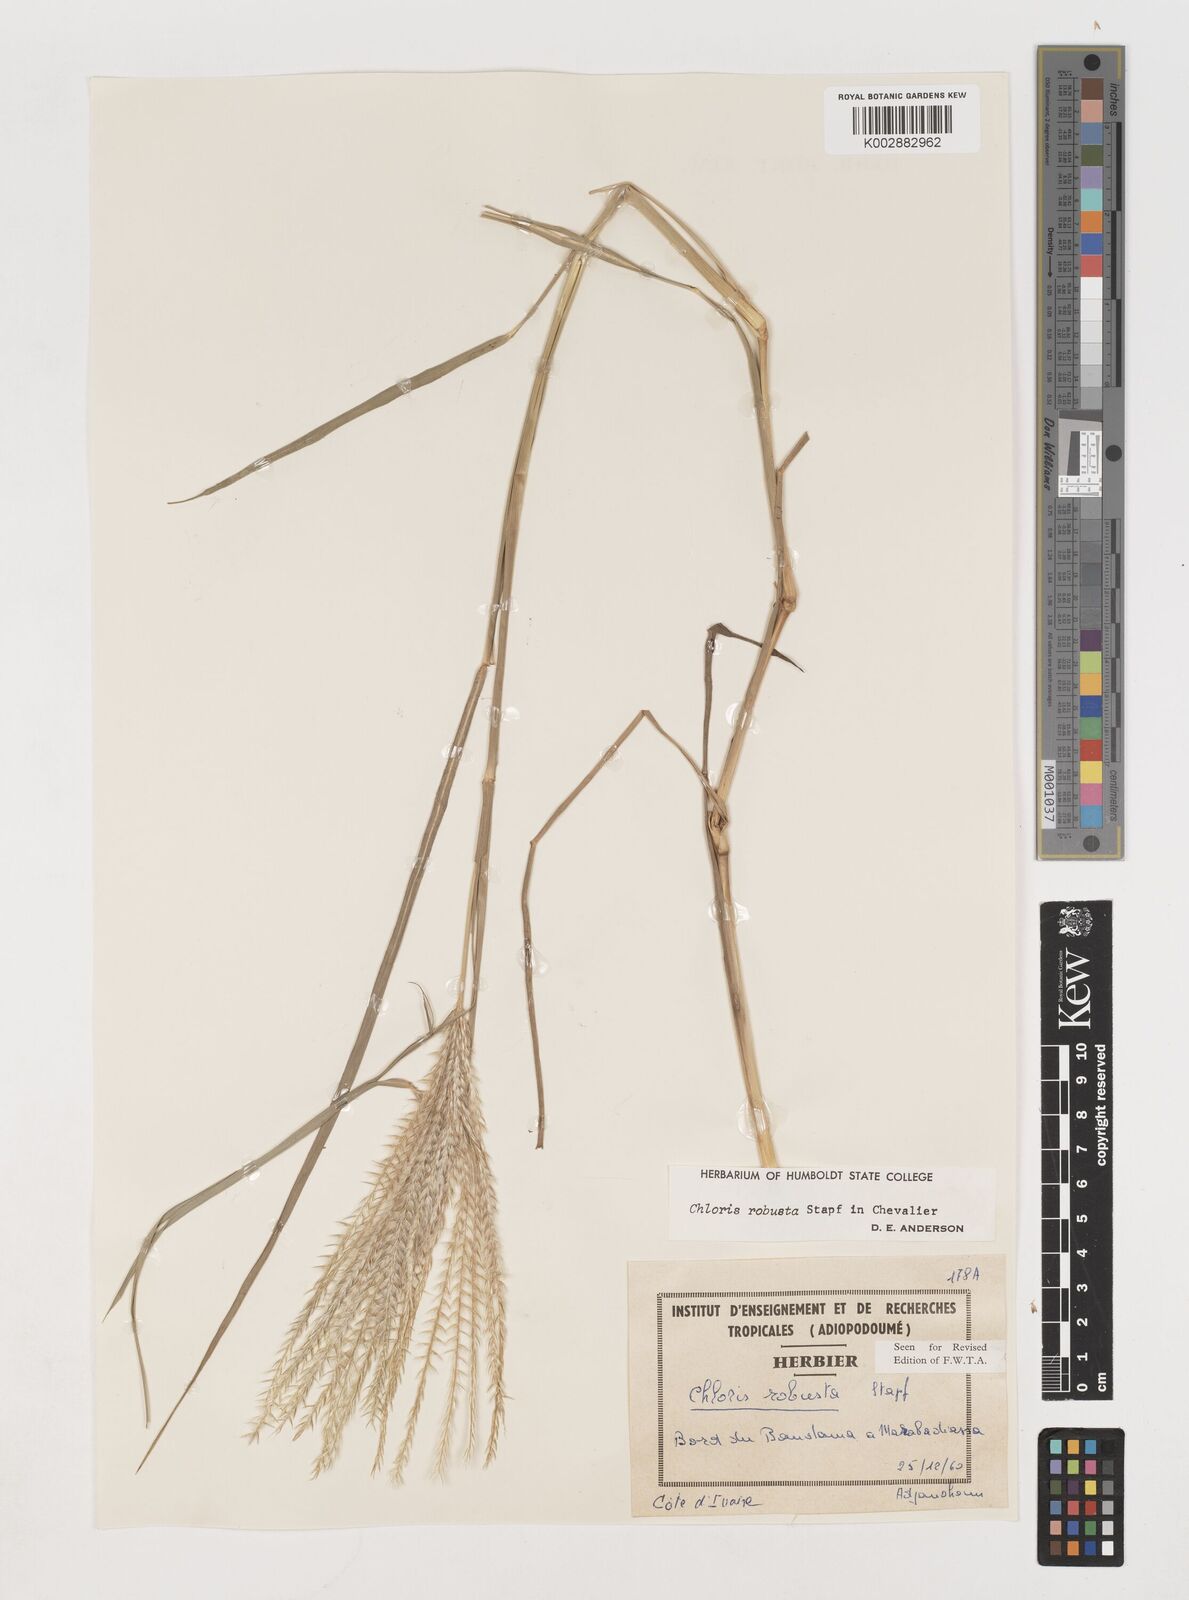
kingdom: Plantae
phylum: Tracheophyta
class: Liliopsida
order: Poales
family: Poaceae
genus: Chloris
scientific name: Chloris robusta
